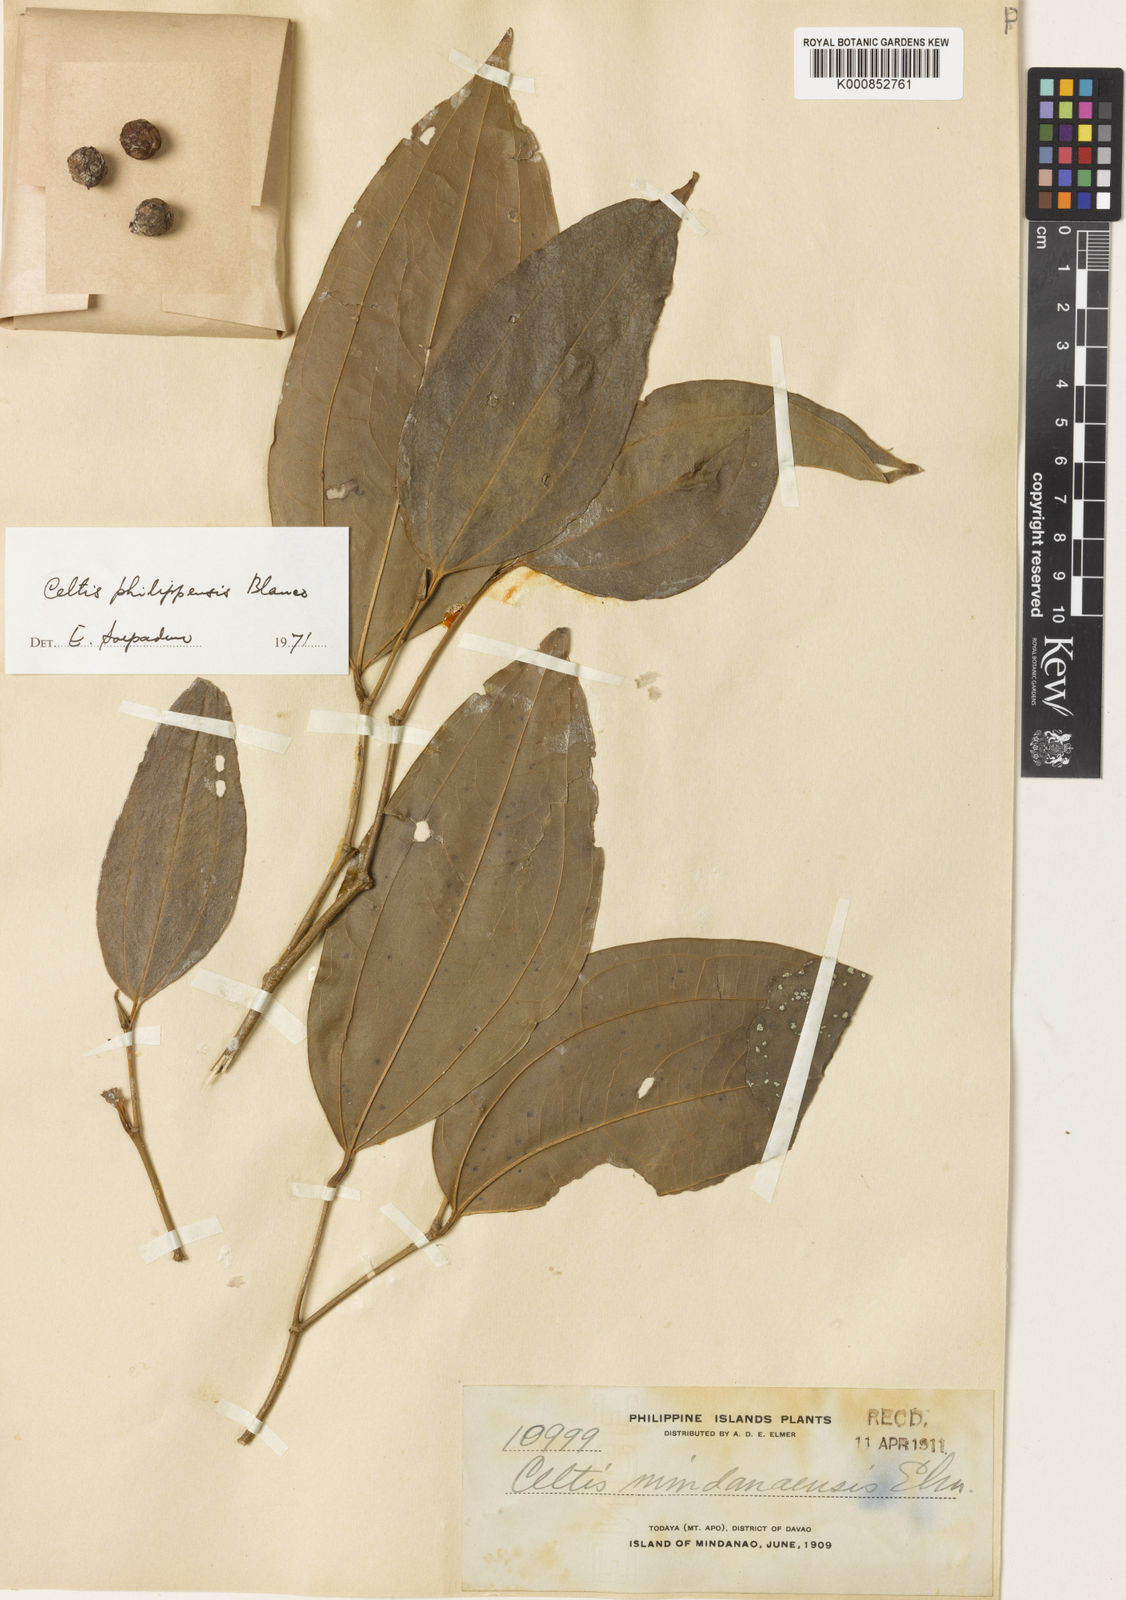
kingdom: Plantae
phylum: Tracheophyta
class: Magnoliopsida
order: Rosales
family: Cannabaceae
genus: Celtis
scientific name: Celtis philippensis
